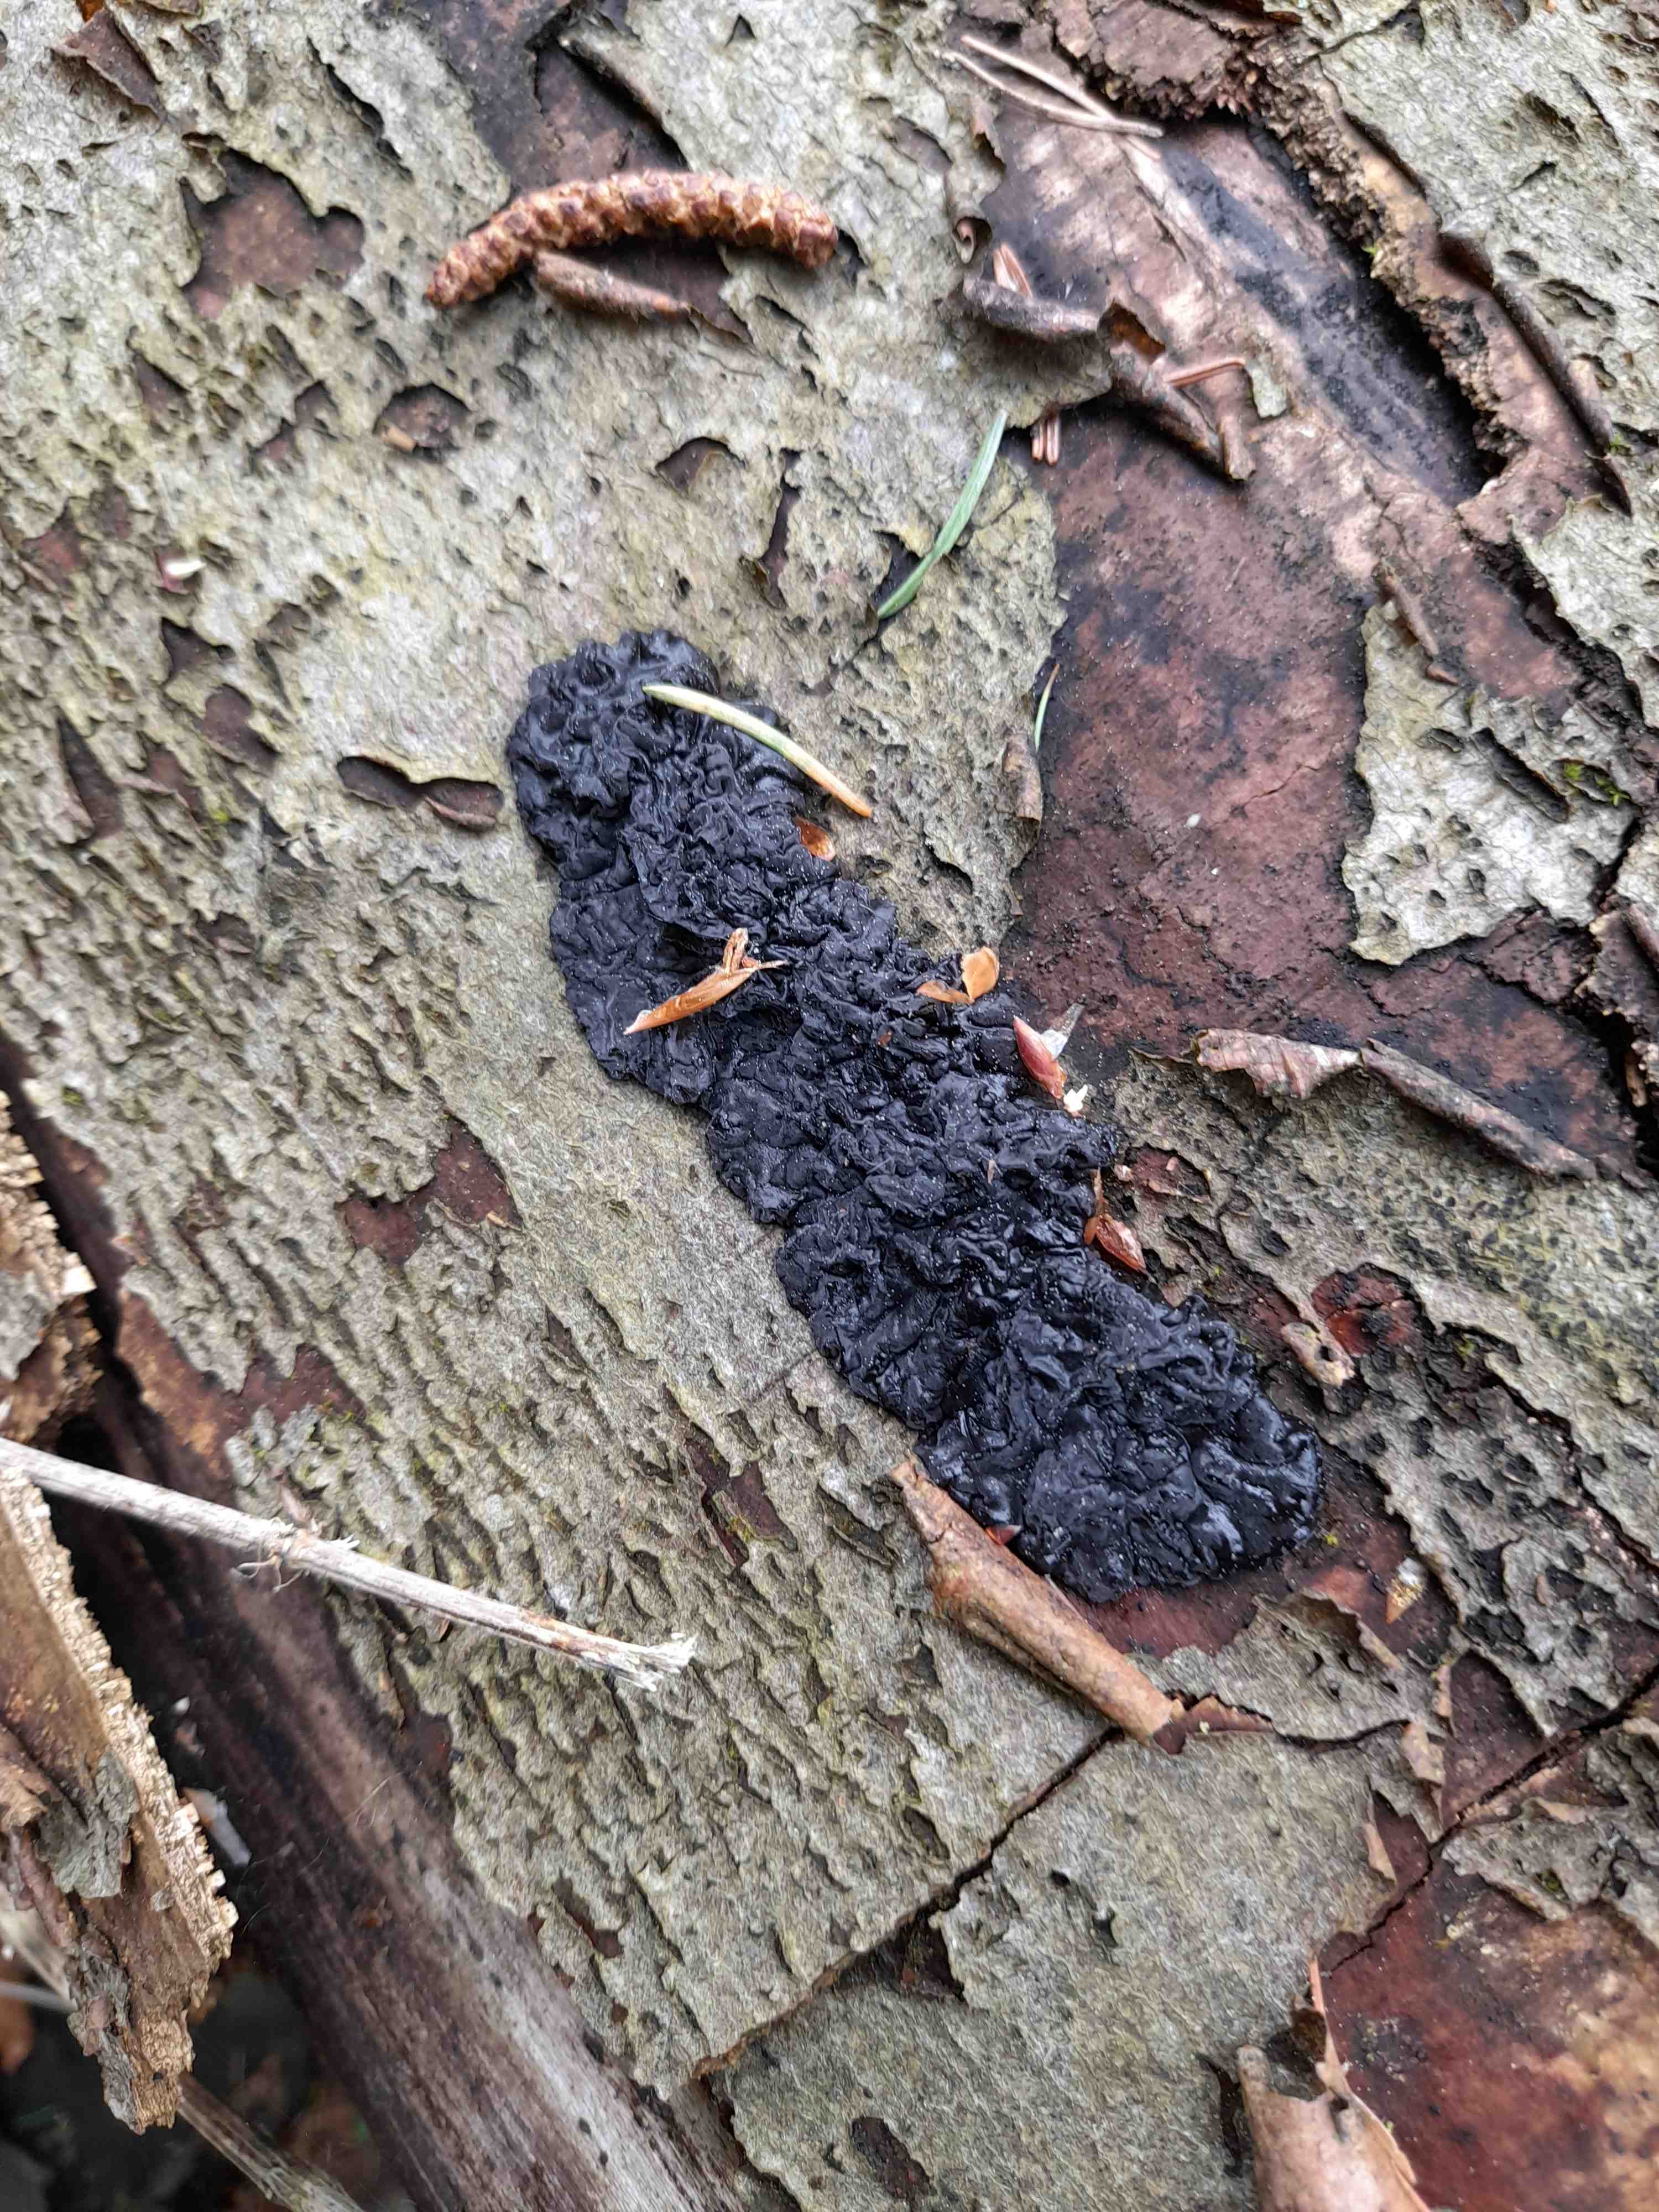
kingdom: Fungi
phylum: Basidiomycota
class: Agaricomycetes
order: Auriculariales
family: Auriculariaceae
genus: Exidia
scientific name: Exidia nigricans
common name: almindelig bævretop
